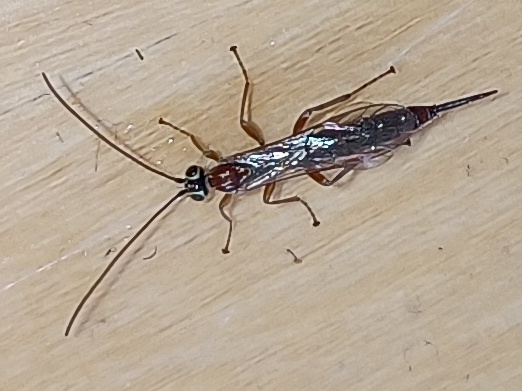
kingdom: Animalia
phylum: Arthropoda
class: Insecta
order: Hymenoptera
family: Ichneumonidae
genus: Tromatobia
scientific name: Tromatobia lineatoria
